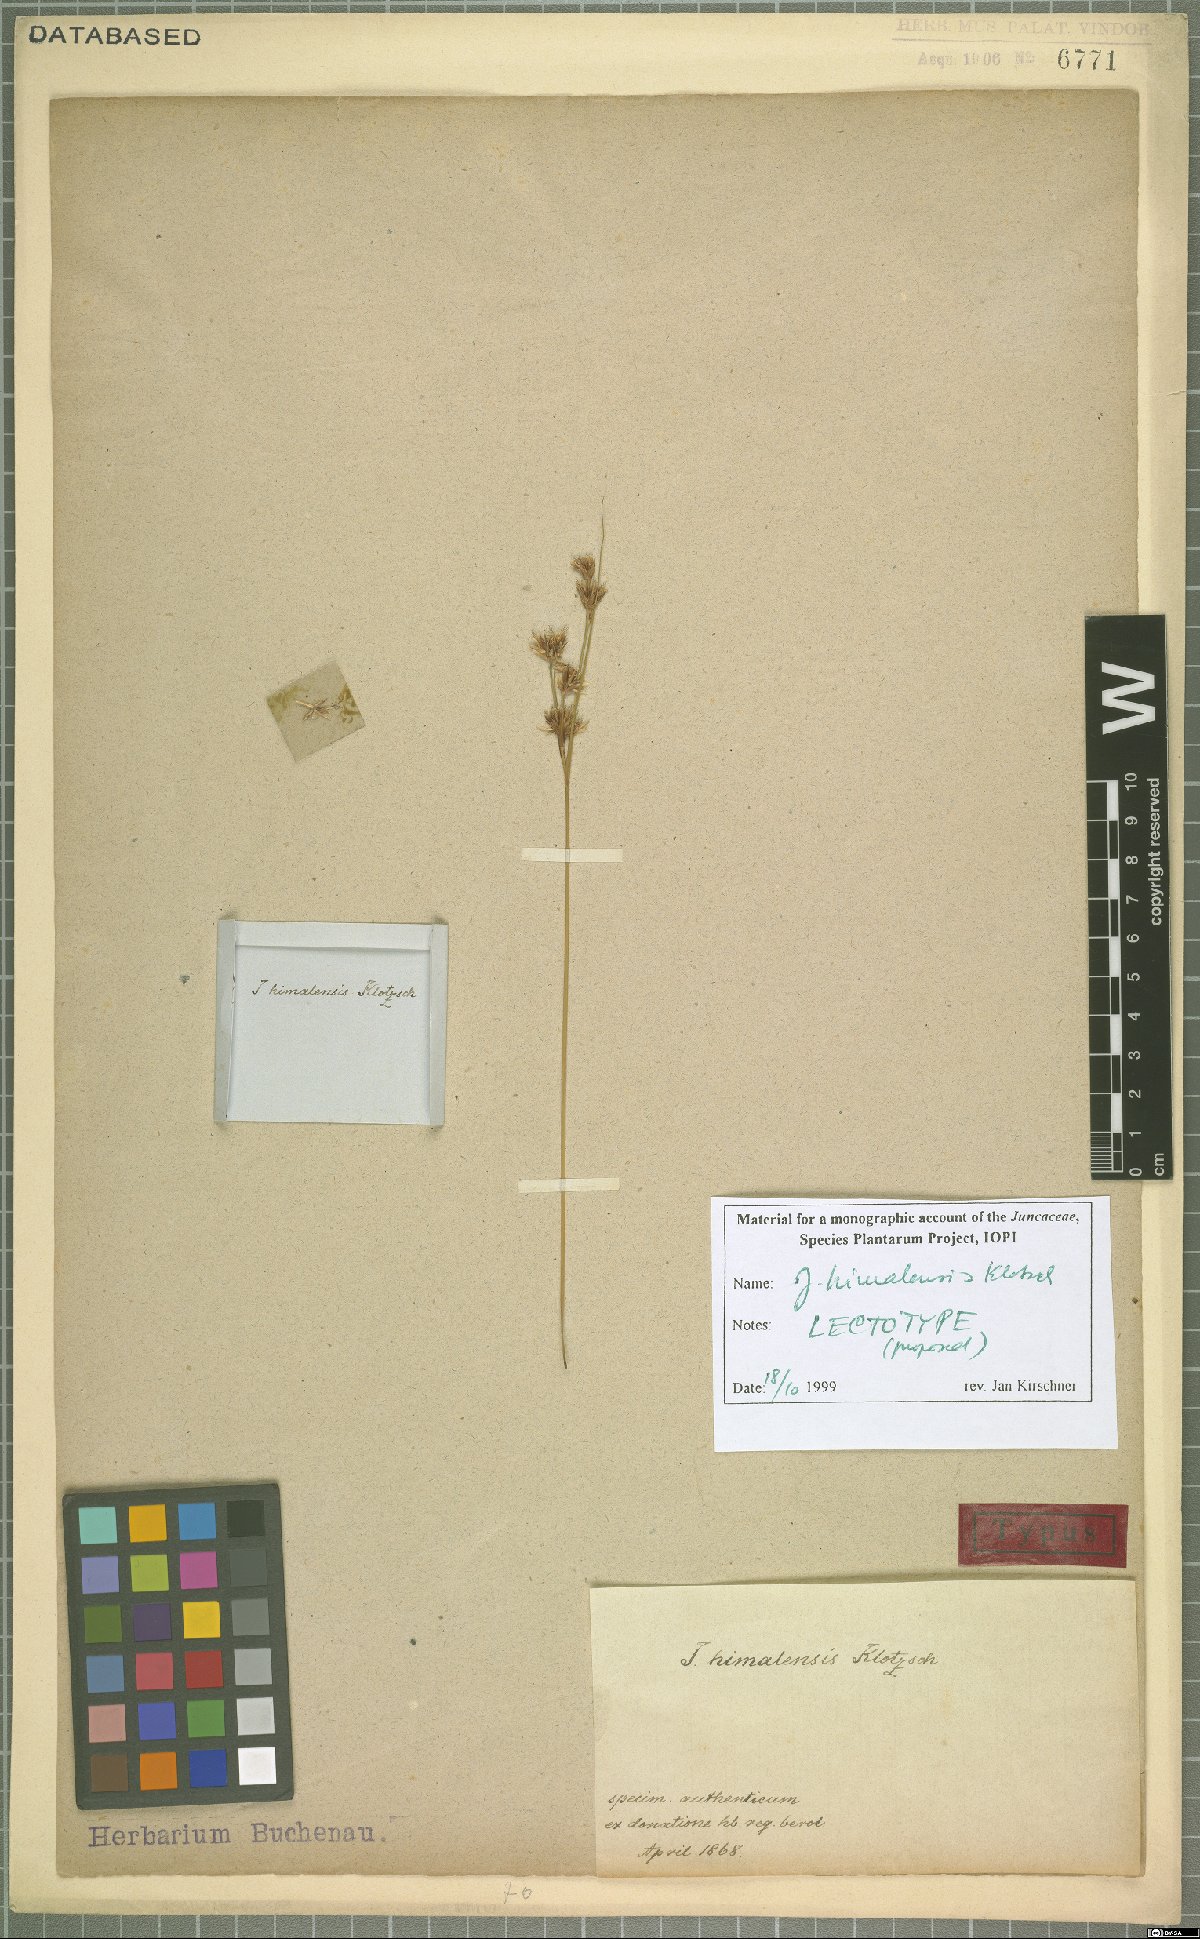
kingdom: Plantae
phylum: Tracheophyta
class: Liliopsida
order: Poales
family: Juncaceae
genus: Juncus
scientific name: Juncus himalensis
